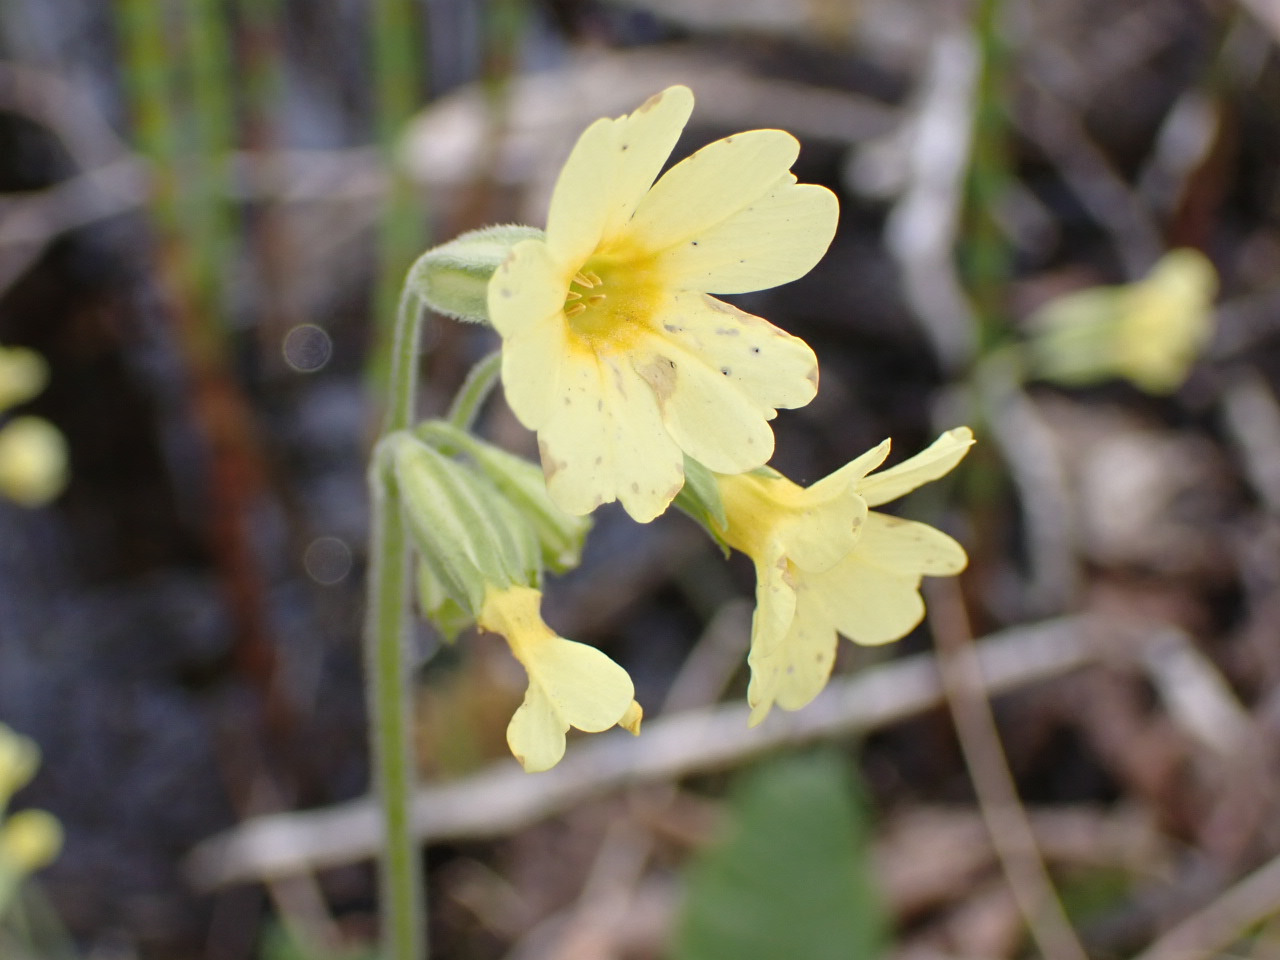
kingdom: Plantae
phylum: Tracheophyta
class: Magnoliopsida
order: Ericales
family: Primulaceae
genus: Primula
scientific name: Primula elatior
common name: Fladkravet kodriver
